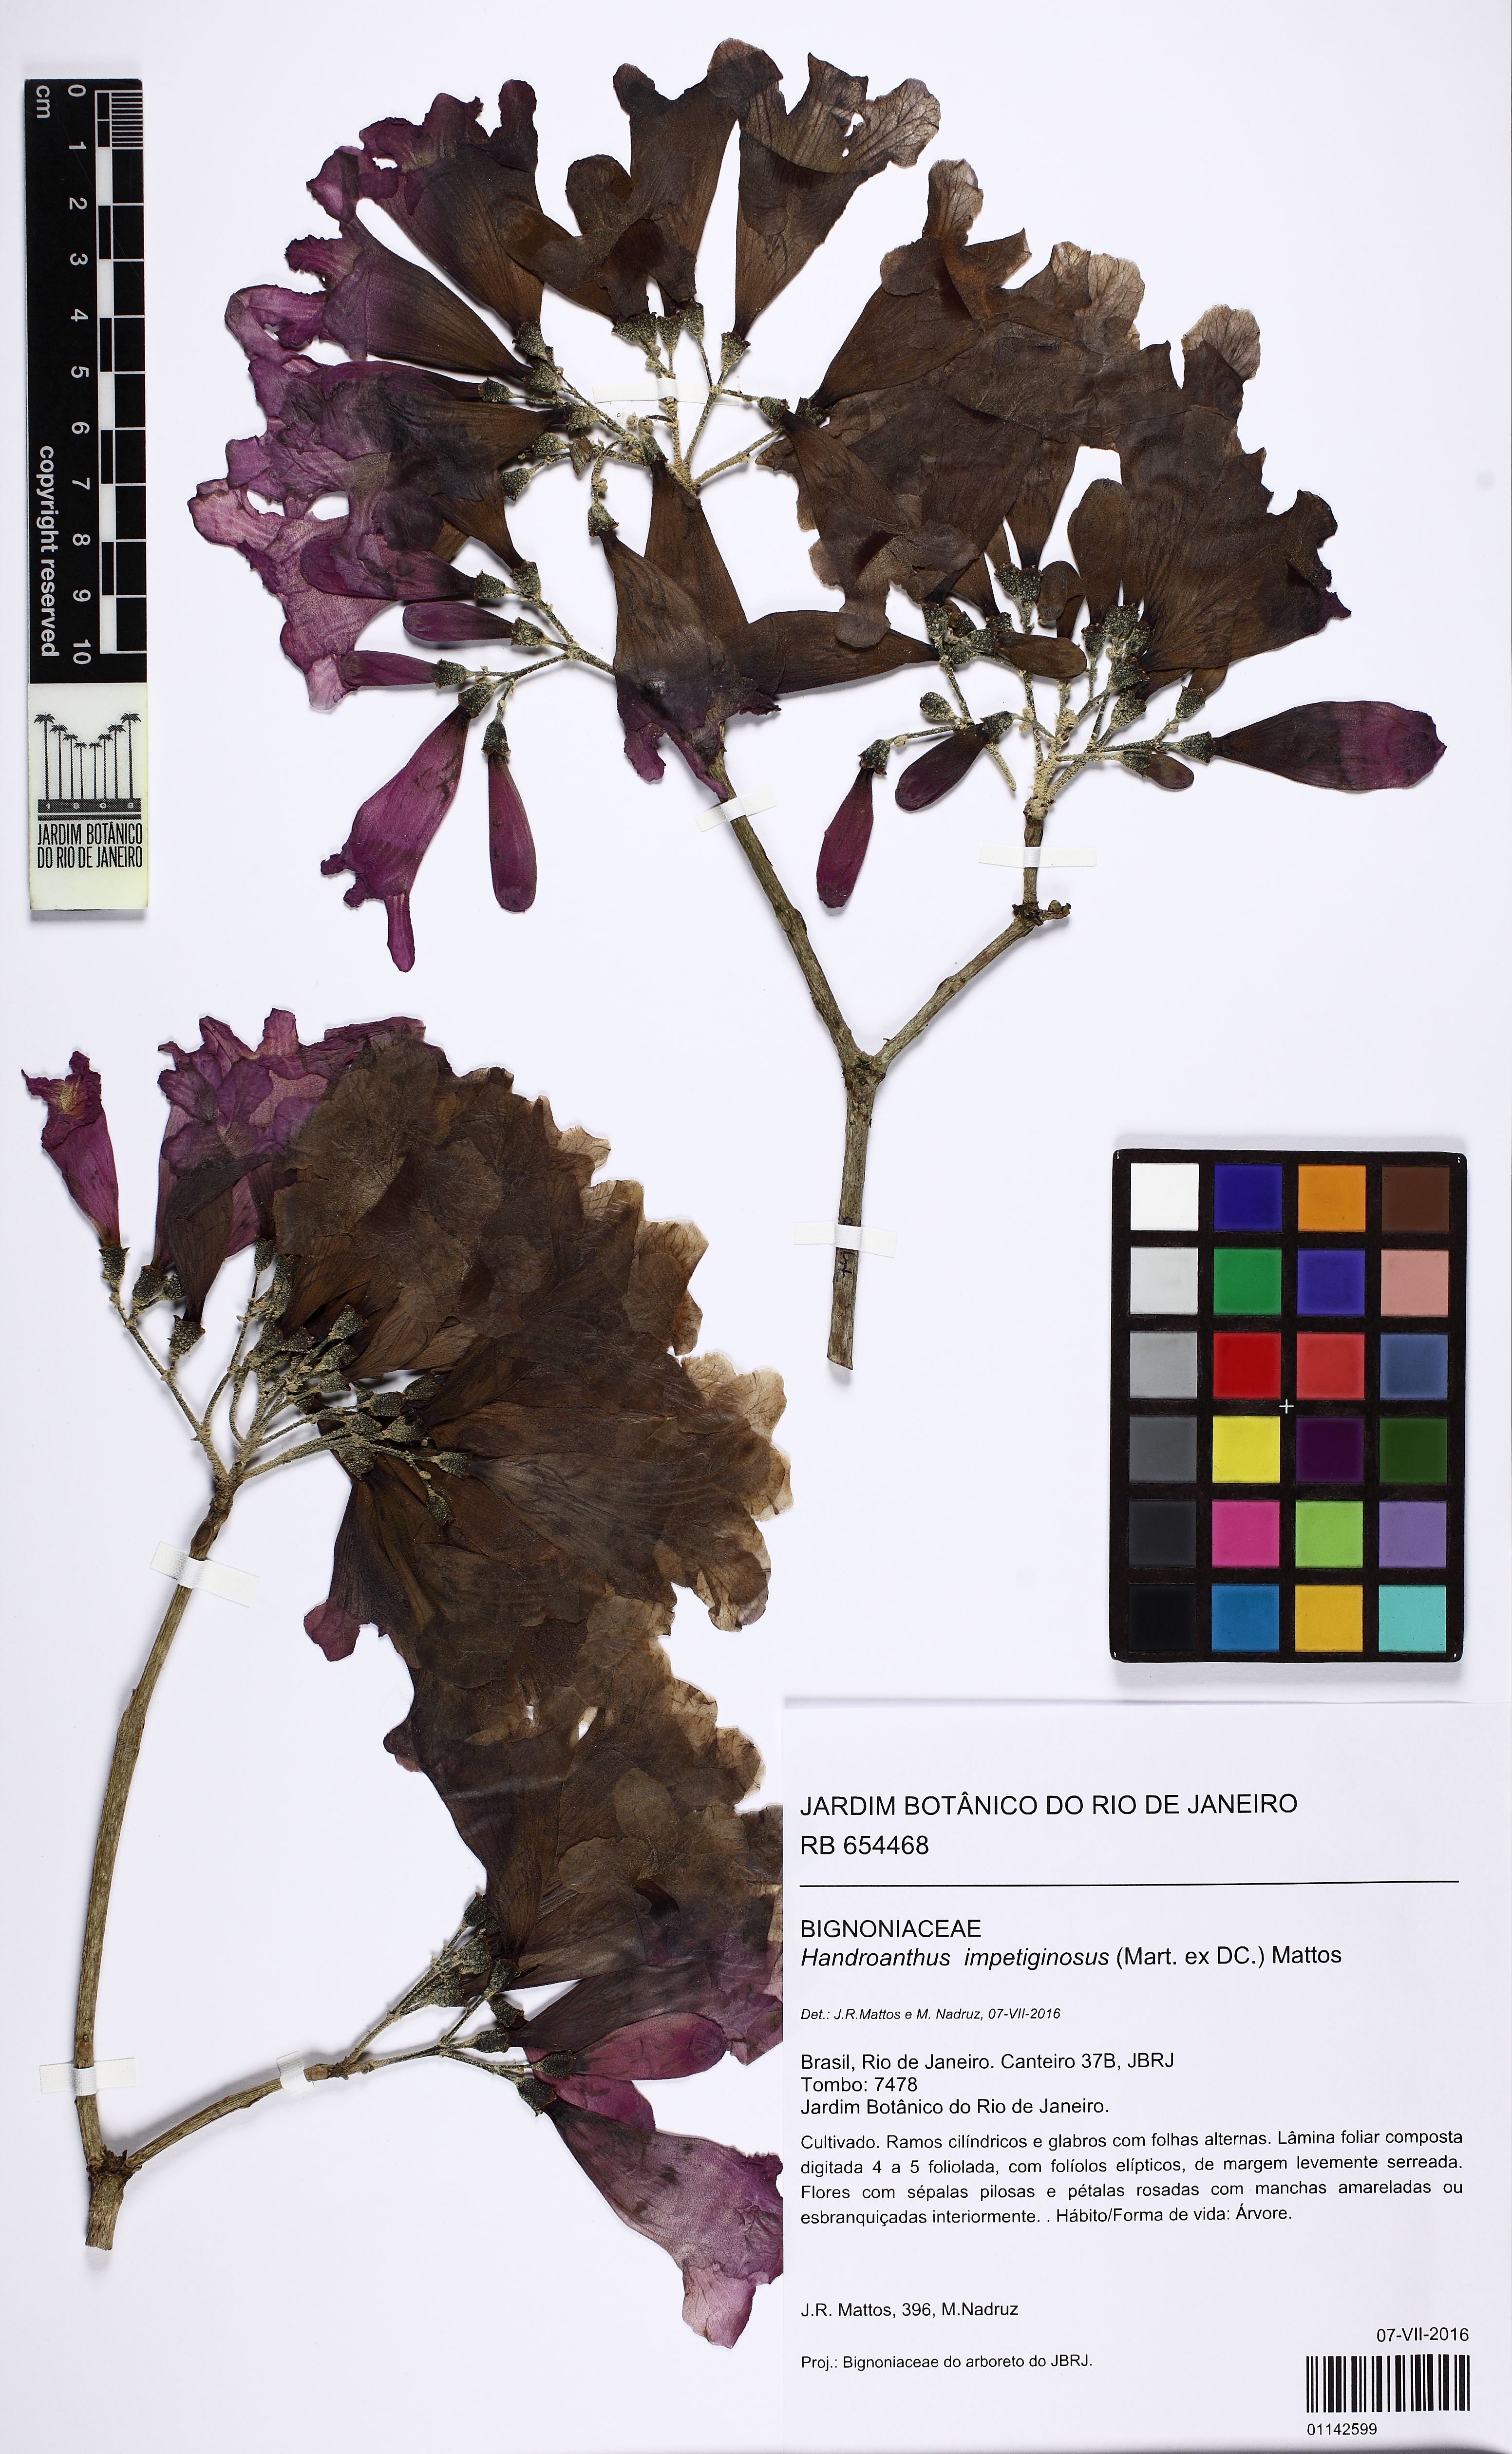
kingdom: Plantae
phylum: Tracheophyta
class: Magnoliopsida
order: Lamiales
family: Bignoniaceae
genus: Handroanthus
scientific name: Handroanthus impetiginosum
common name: Pink trumpet tree
